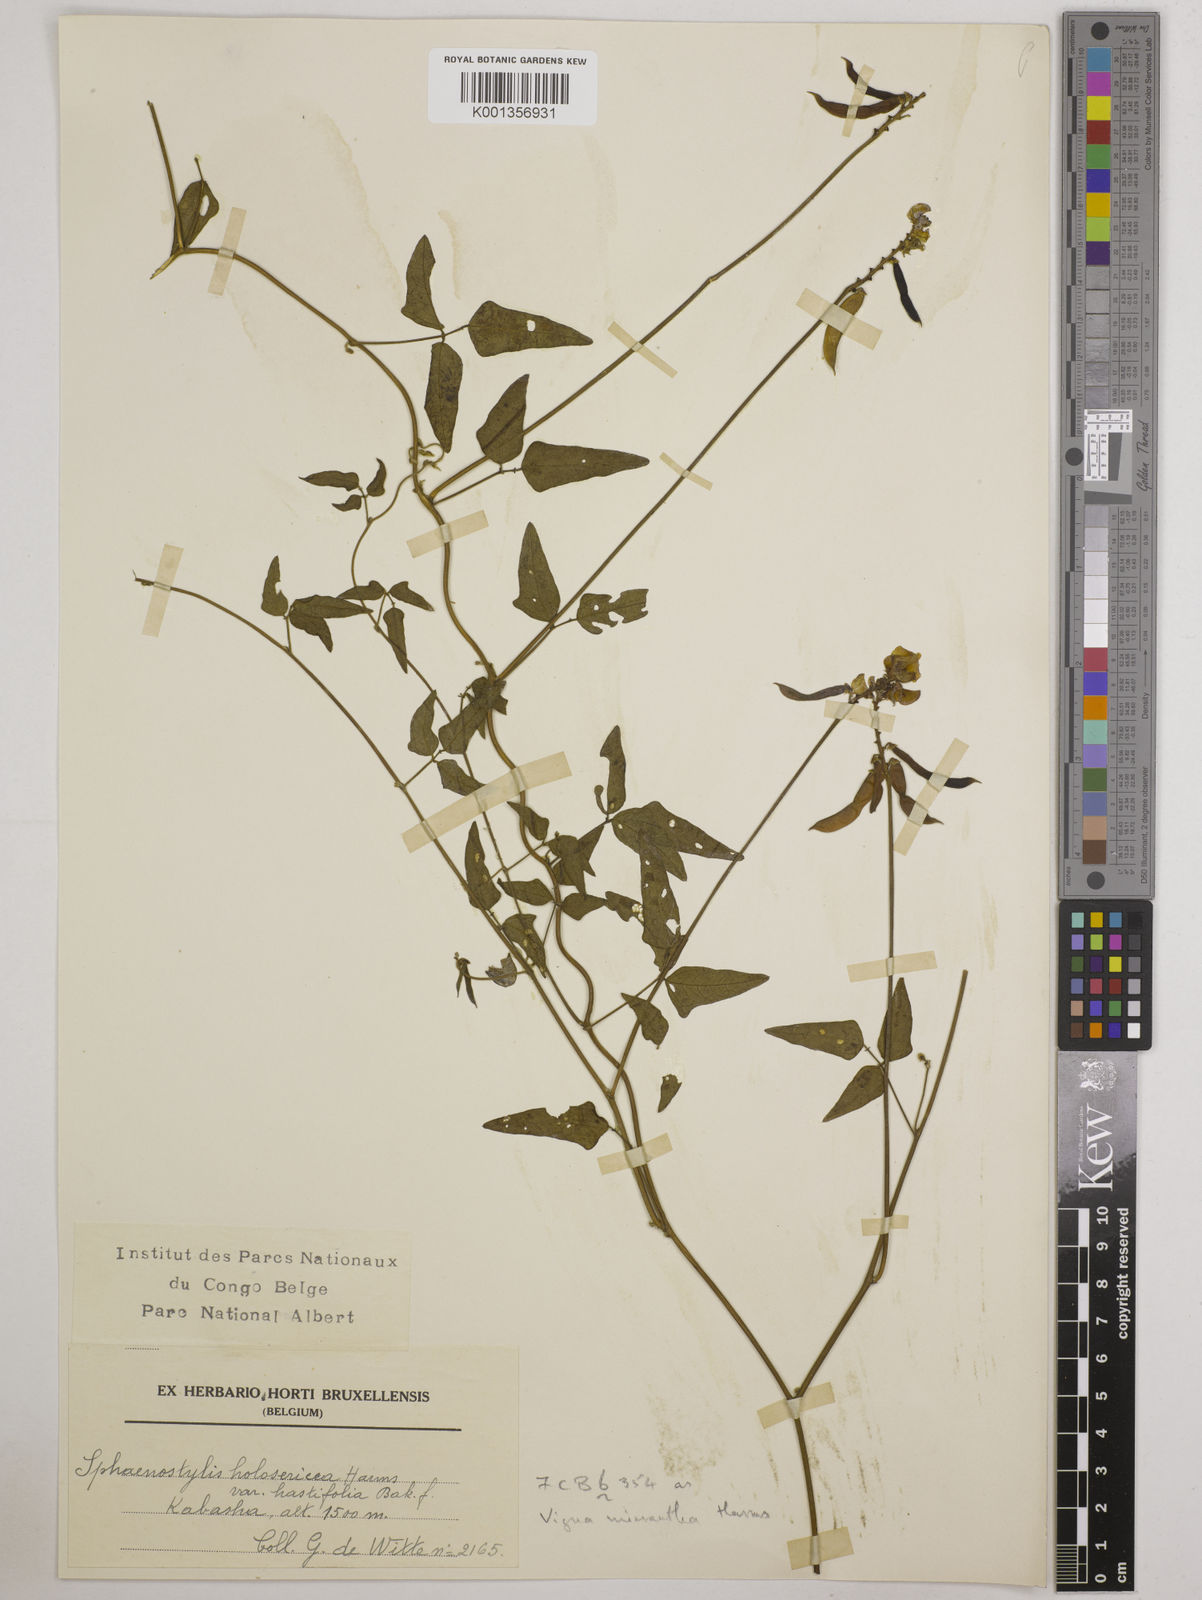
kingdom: Plantae
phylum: Tracheophyta
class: Magnoliopsida
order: Fabales
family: Fabaceae
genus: Vigna
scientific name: Vigna comosa
